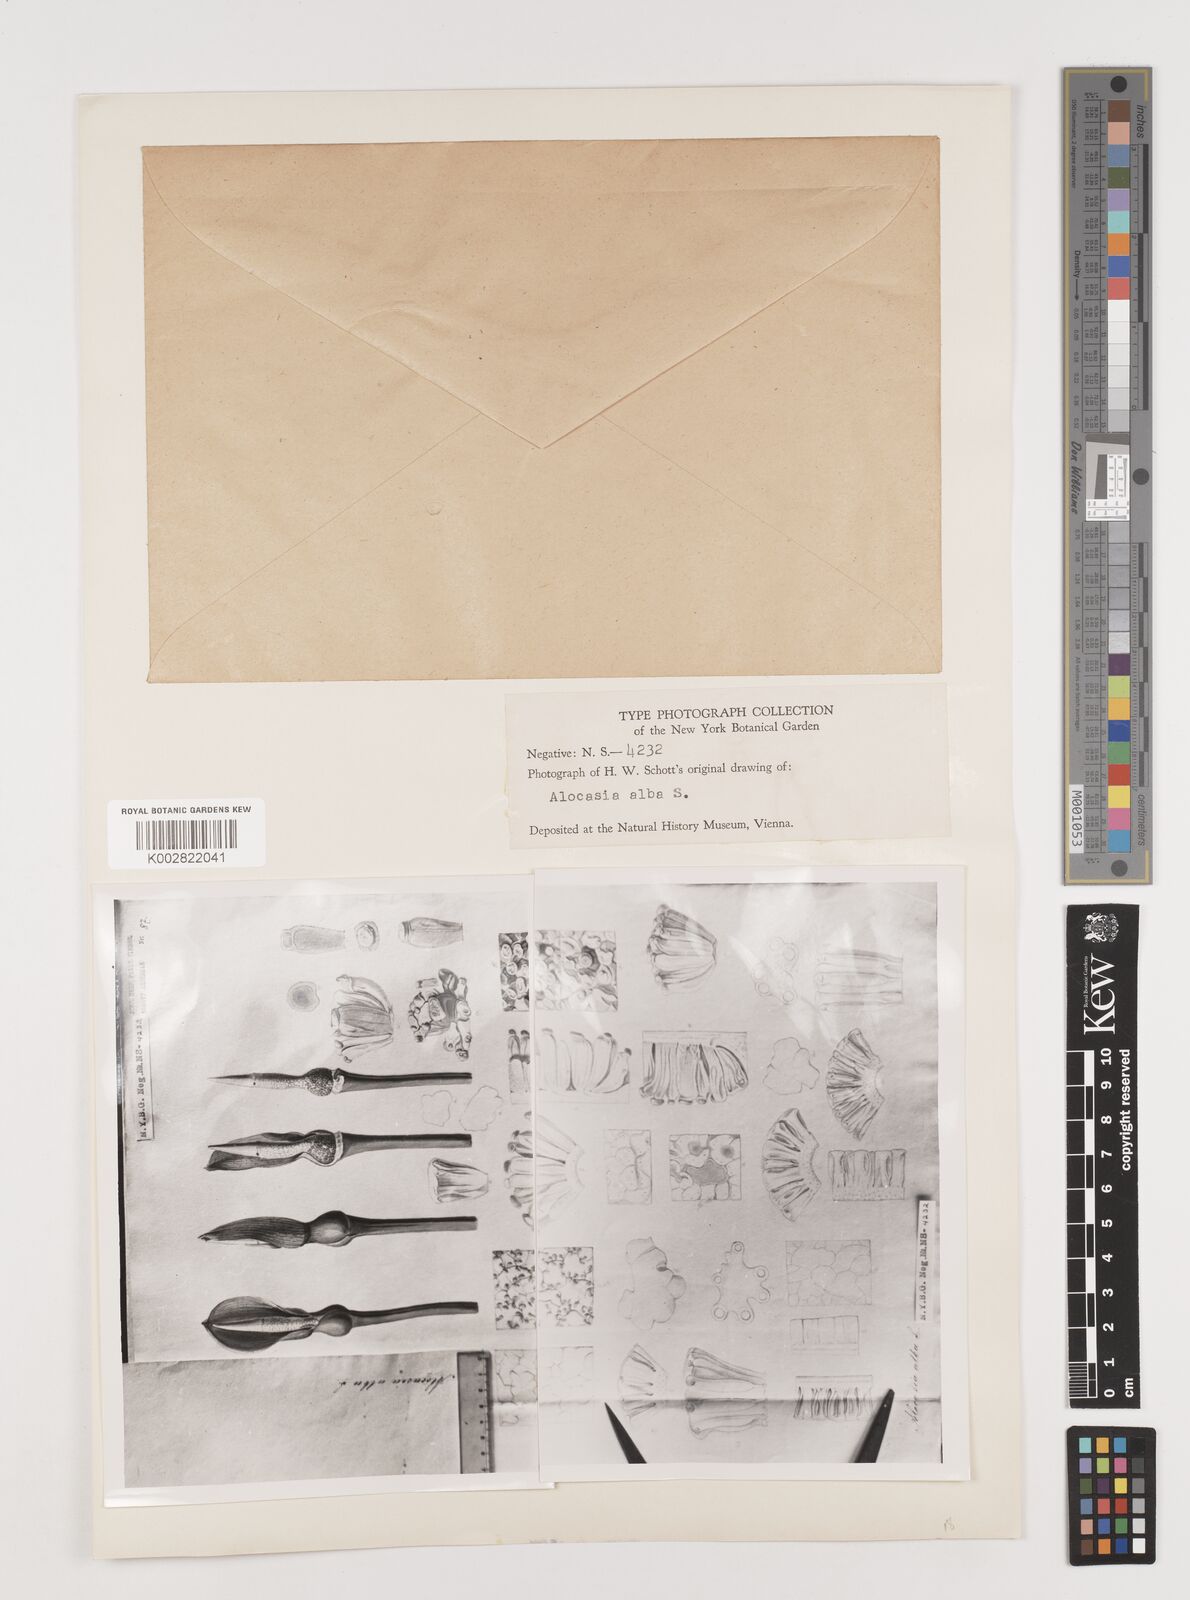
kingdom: Plantae
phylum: Tracheophyta
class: Liliopsida
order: Alismatales
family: Araceae
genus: Alocasia
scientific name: Alocasia alba
